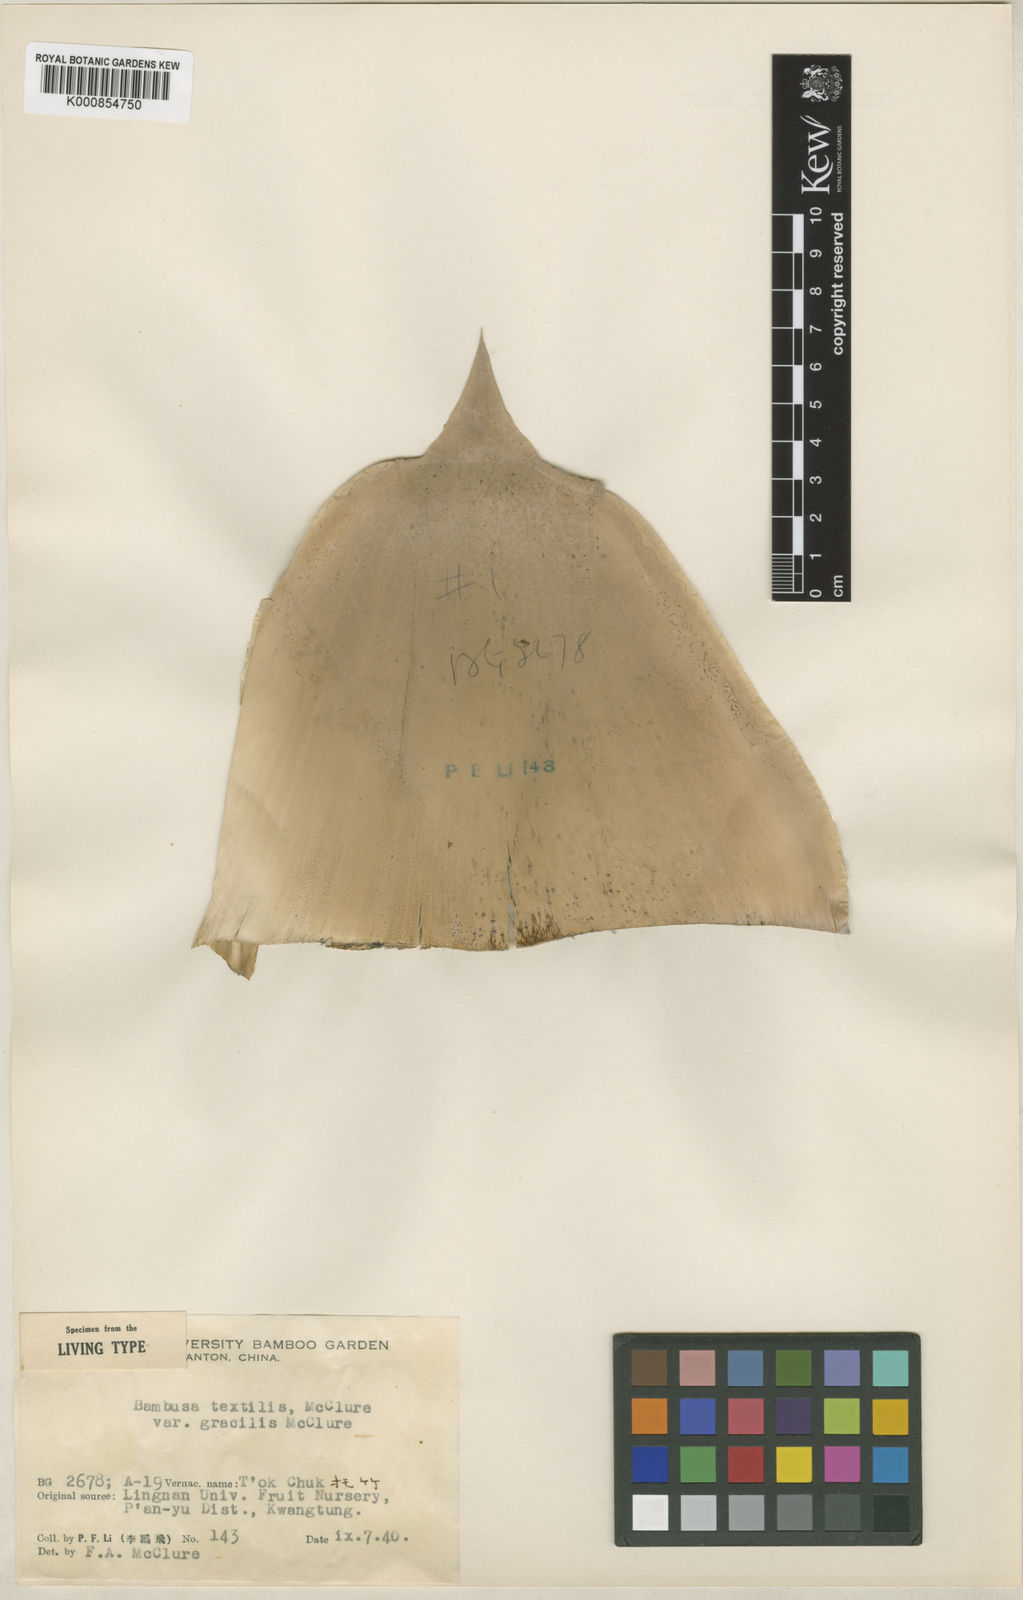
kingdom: Plantae
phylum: Tracheophyta
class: Liliopsida
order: Poales
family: Poaceae
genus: Bambusa
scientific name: Bambusa textilis
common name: Weaver's bamboo
